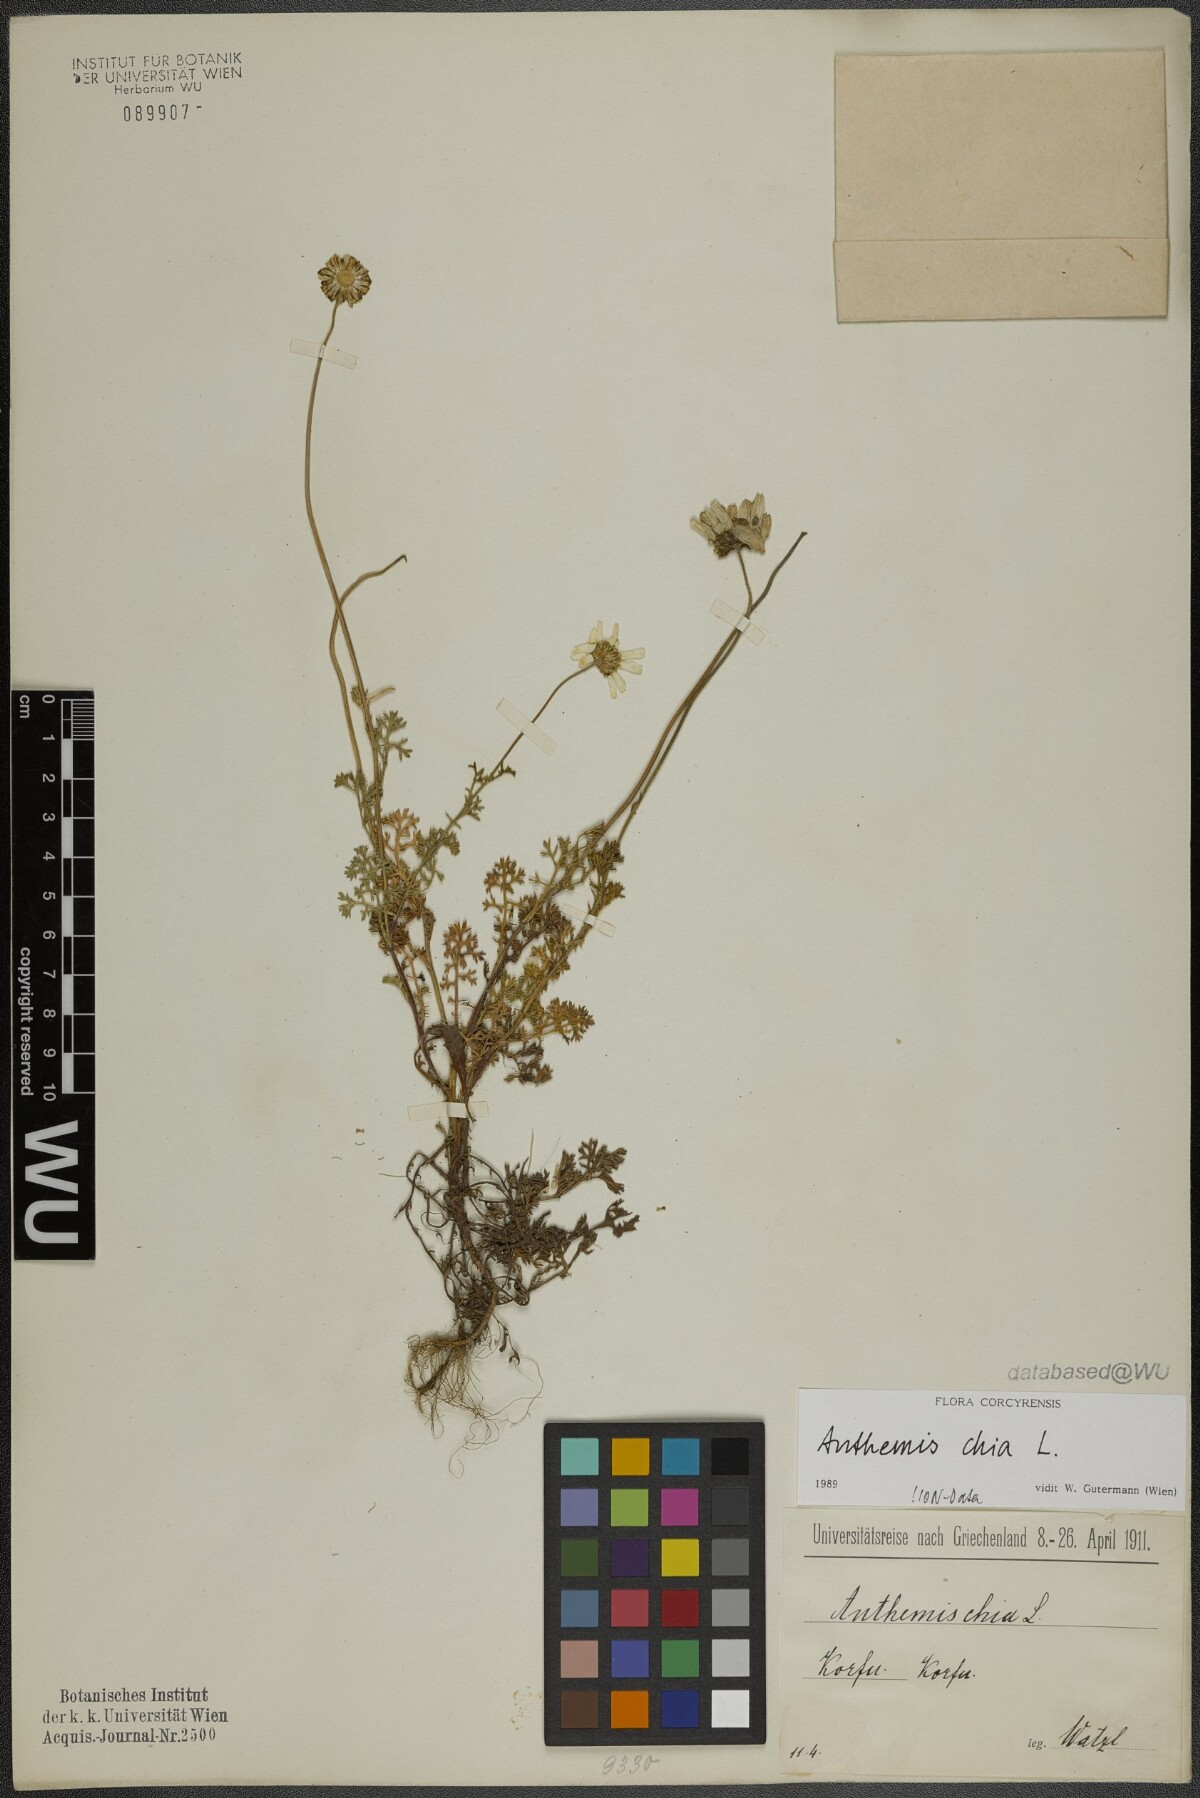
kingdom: Plantae
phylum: Tracheophyta
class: Magnoliopsida
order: Asterales
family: Asteraceae
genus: Anthemis
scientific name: Anthemis chia
